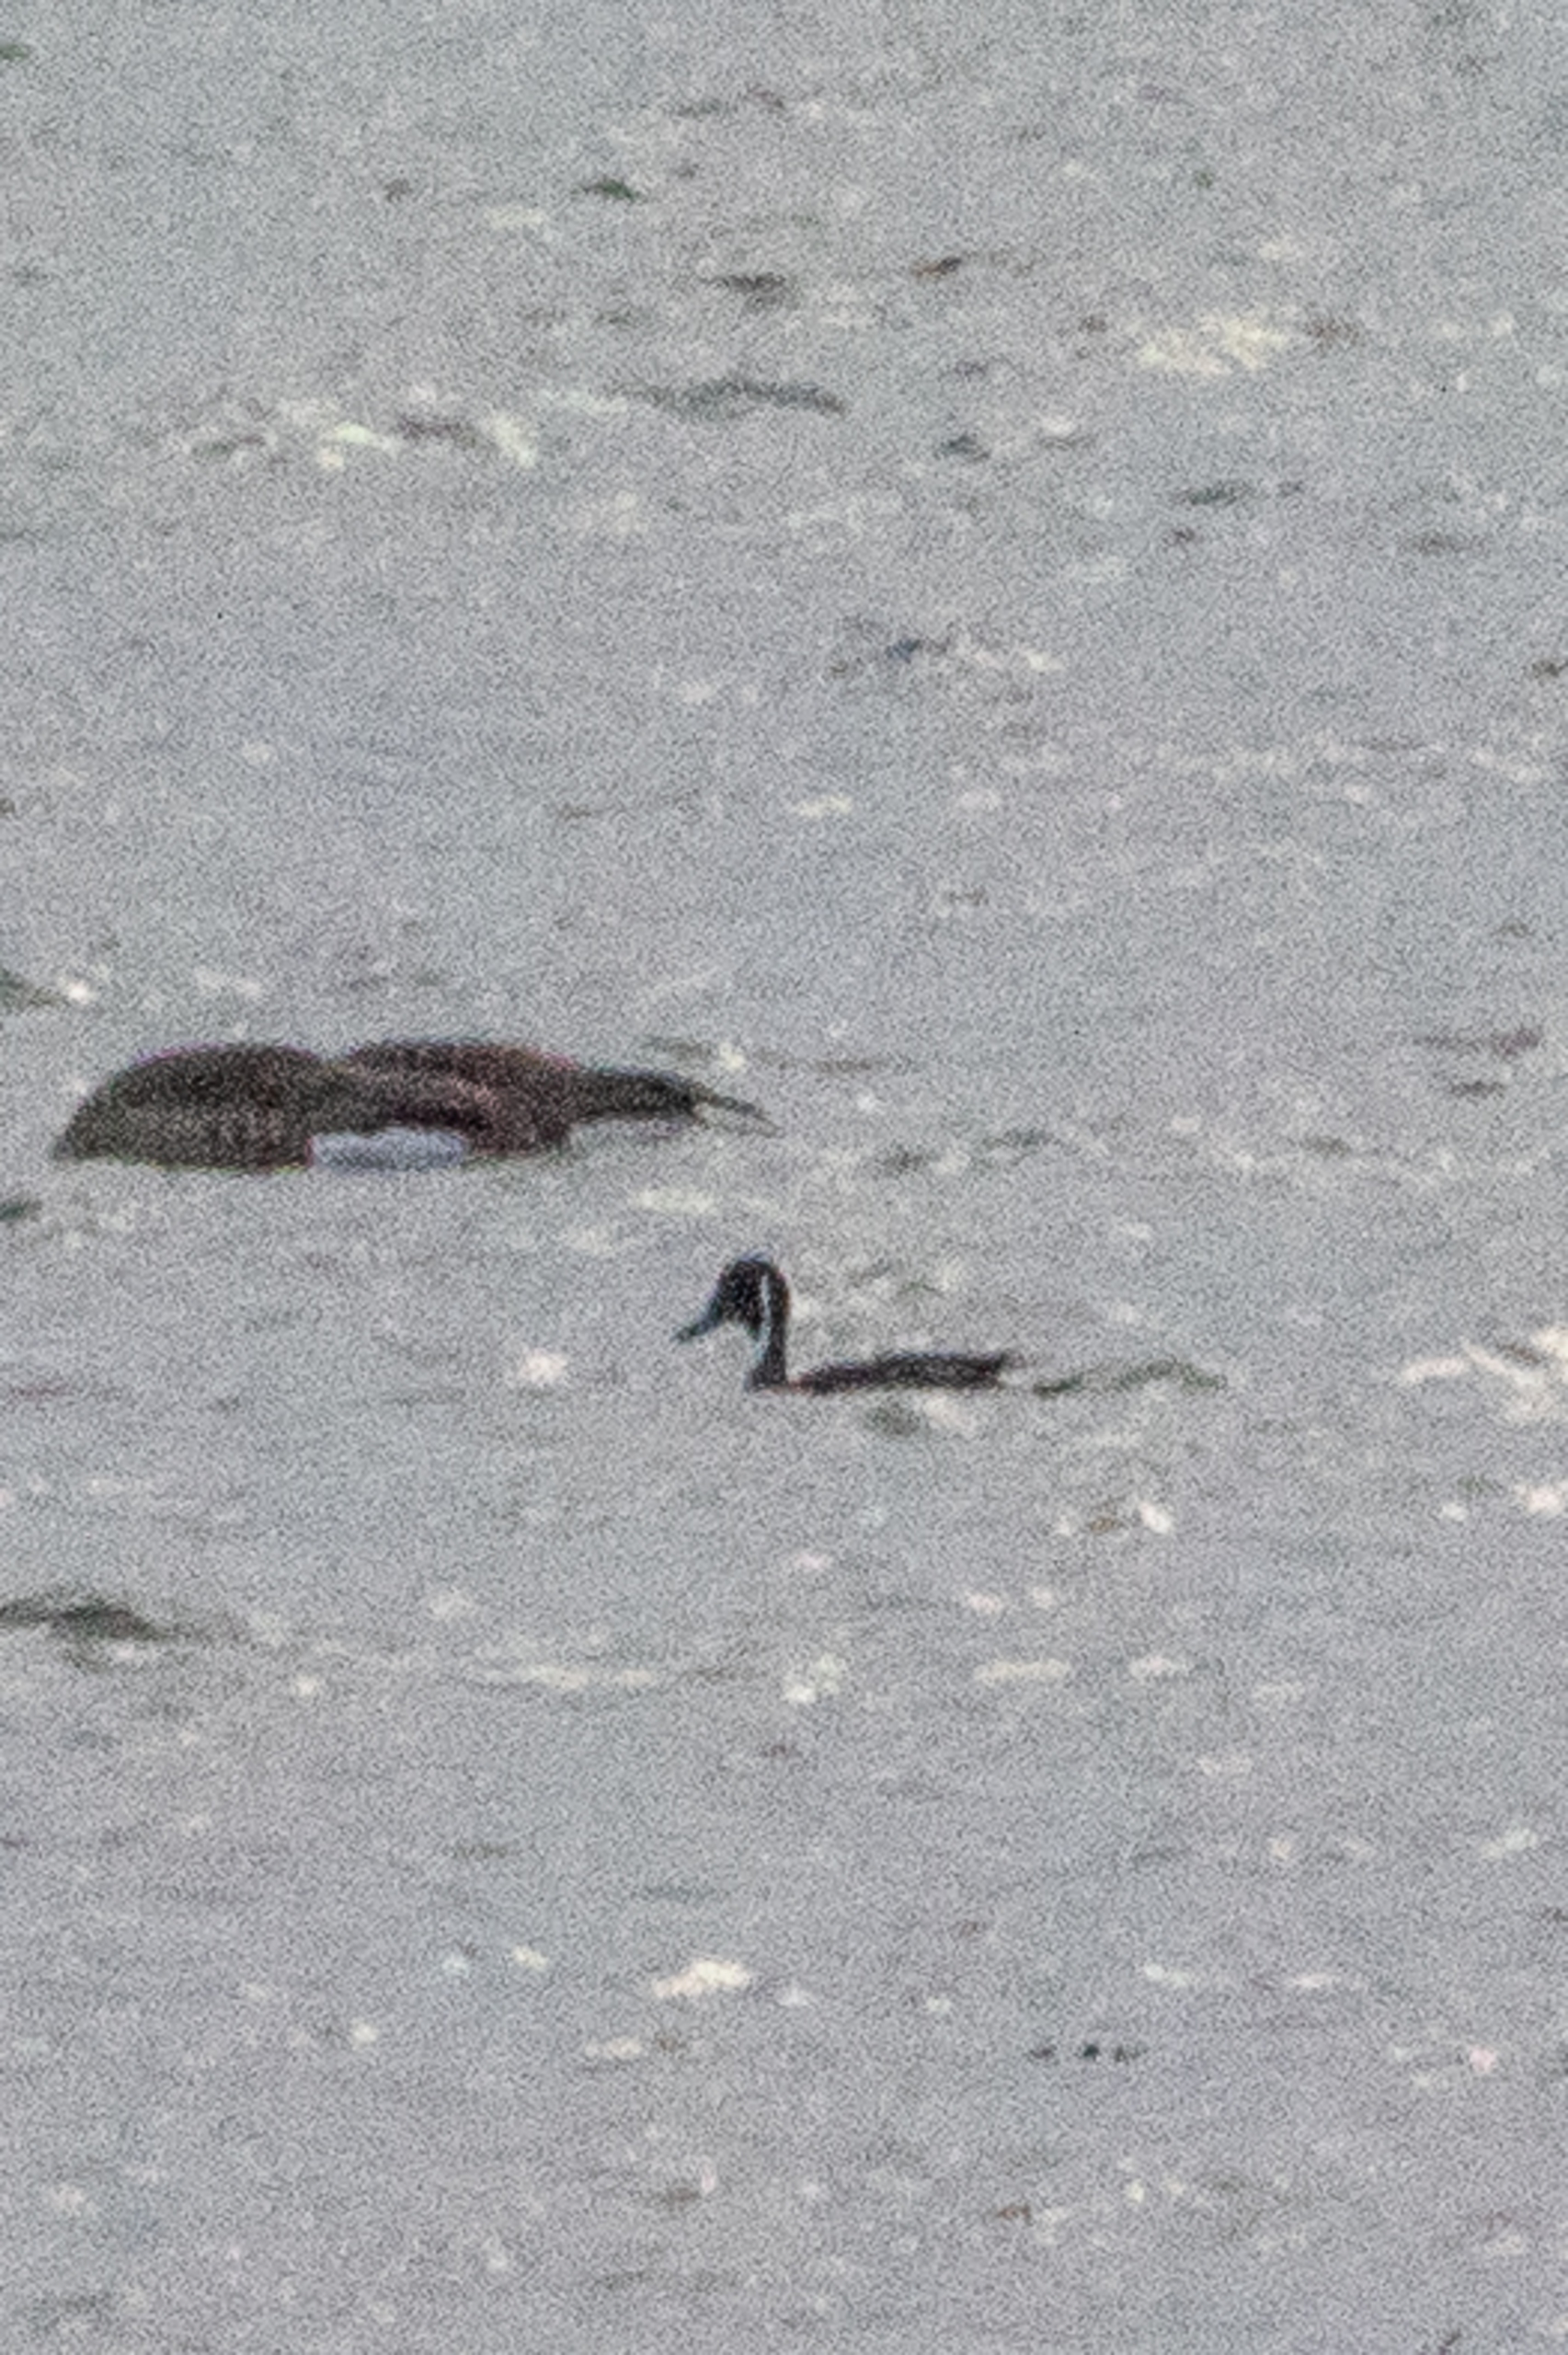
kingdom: Animalia
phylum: Chordata
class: Aves
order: Anseriformes
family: Anatidae
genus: Anas
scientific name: Anas acuta
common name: Spidsand
